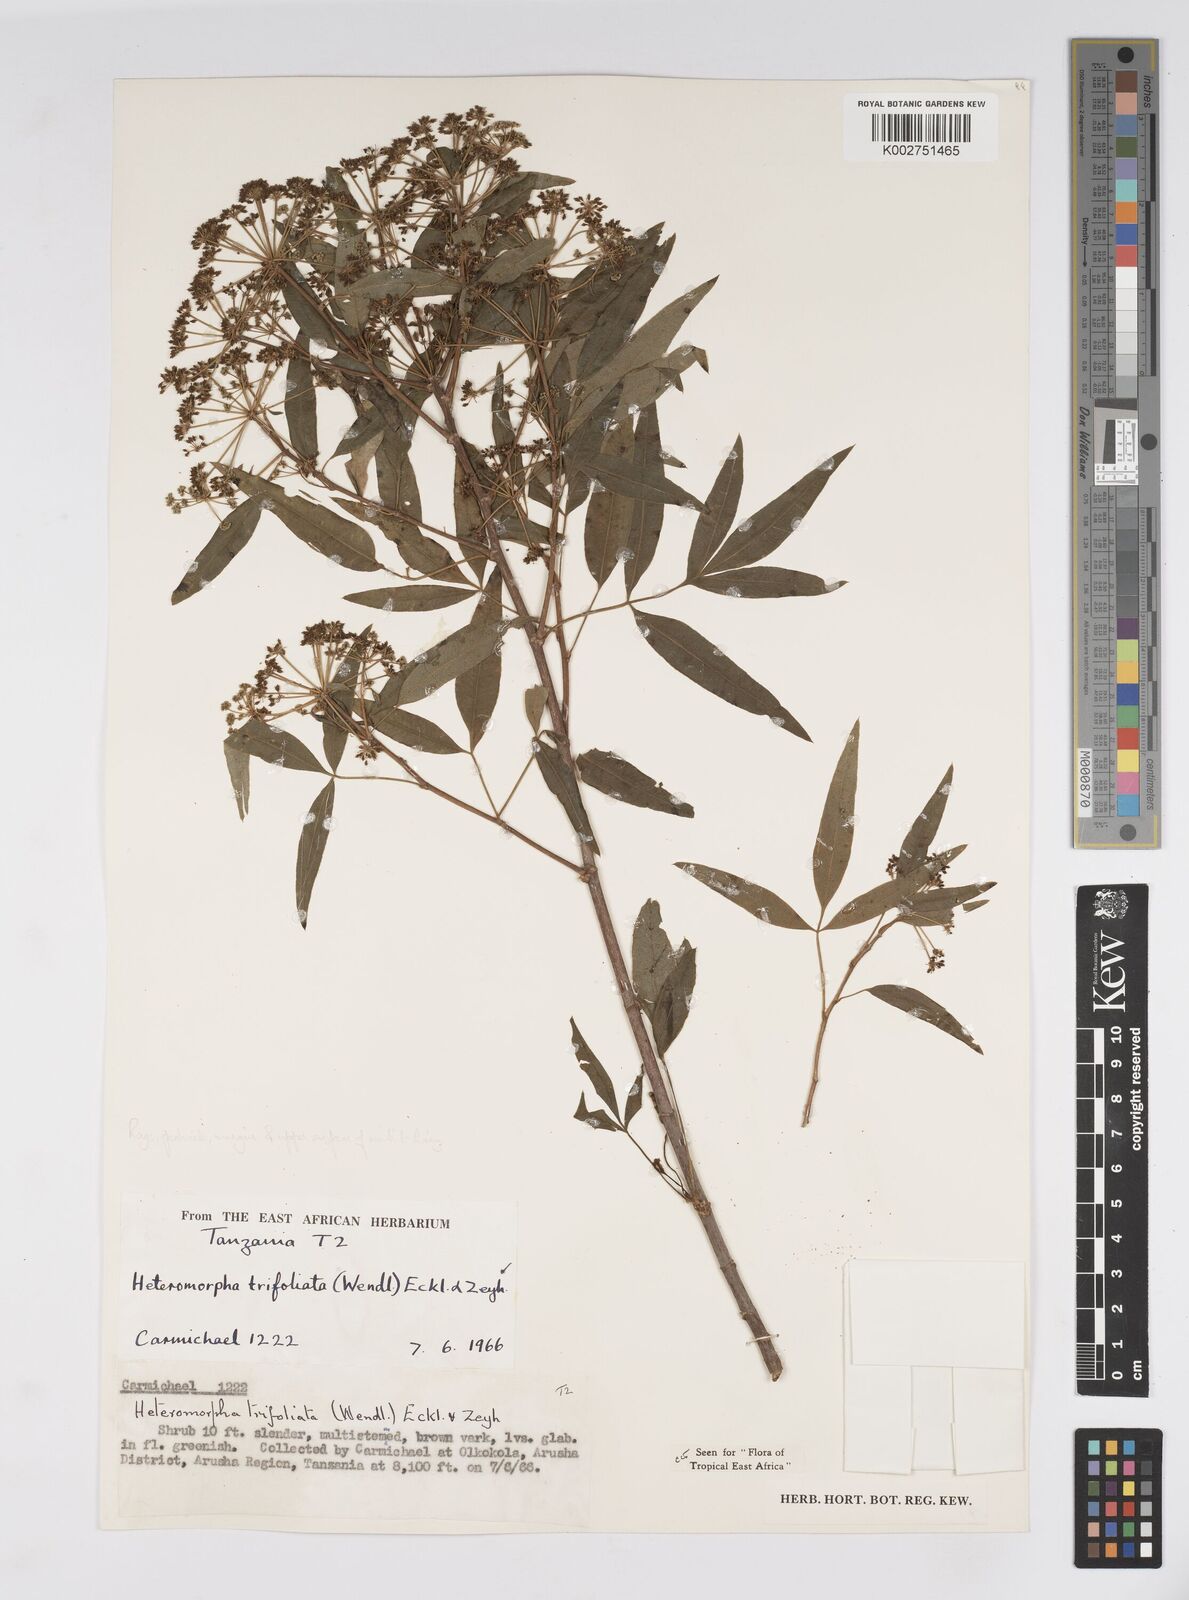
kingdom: Plantae
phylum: Tracheophyta
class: Magnoliopsida
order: Apiales
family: Apiaceae
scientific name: Apiaceae
